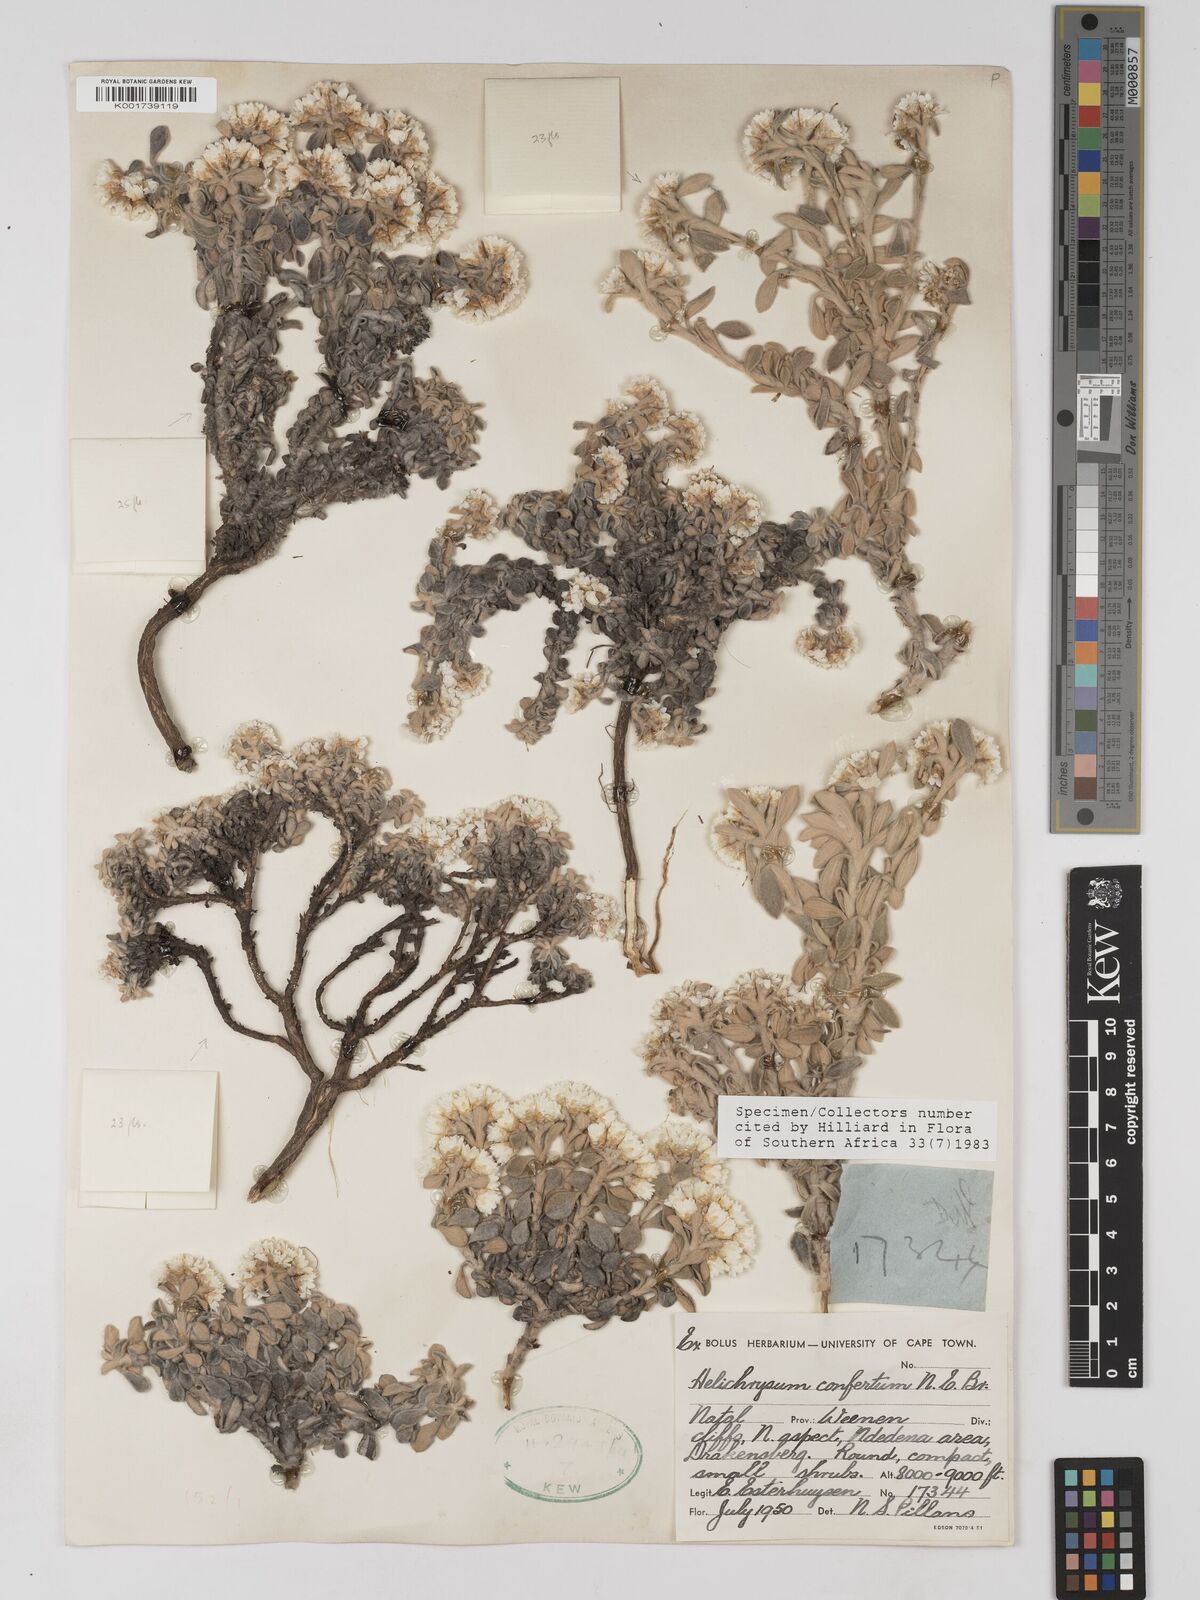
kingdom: Plantae
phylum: Tracheophyta
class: Magnoliopsida
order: Asterales
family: Asteraceae
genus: Helichrysum
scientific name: Helichrysum confertum
